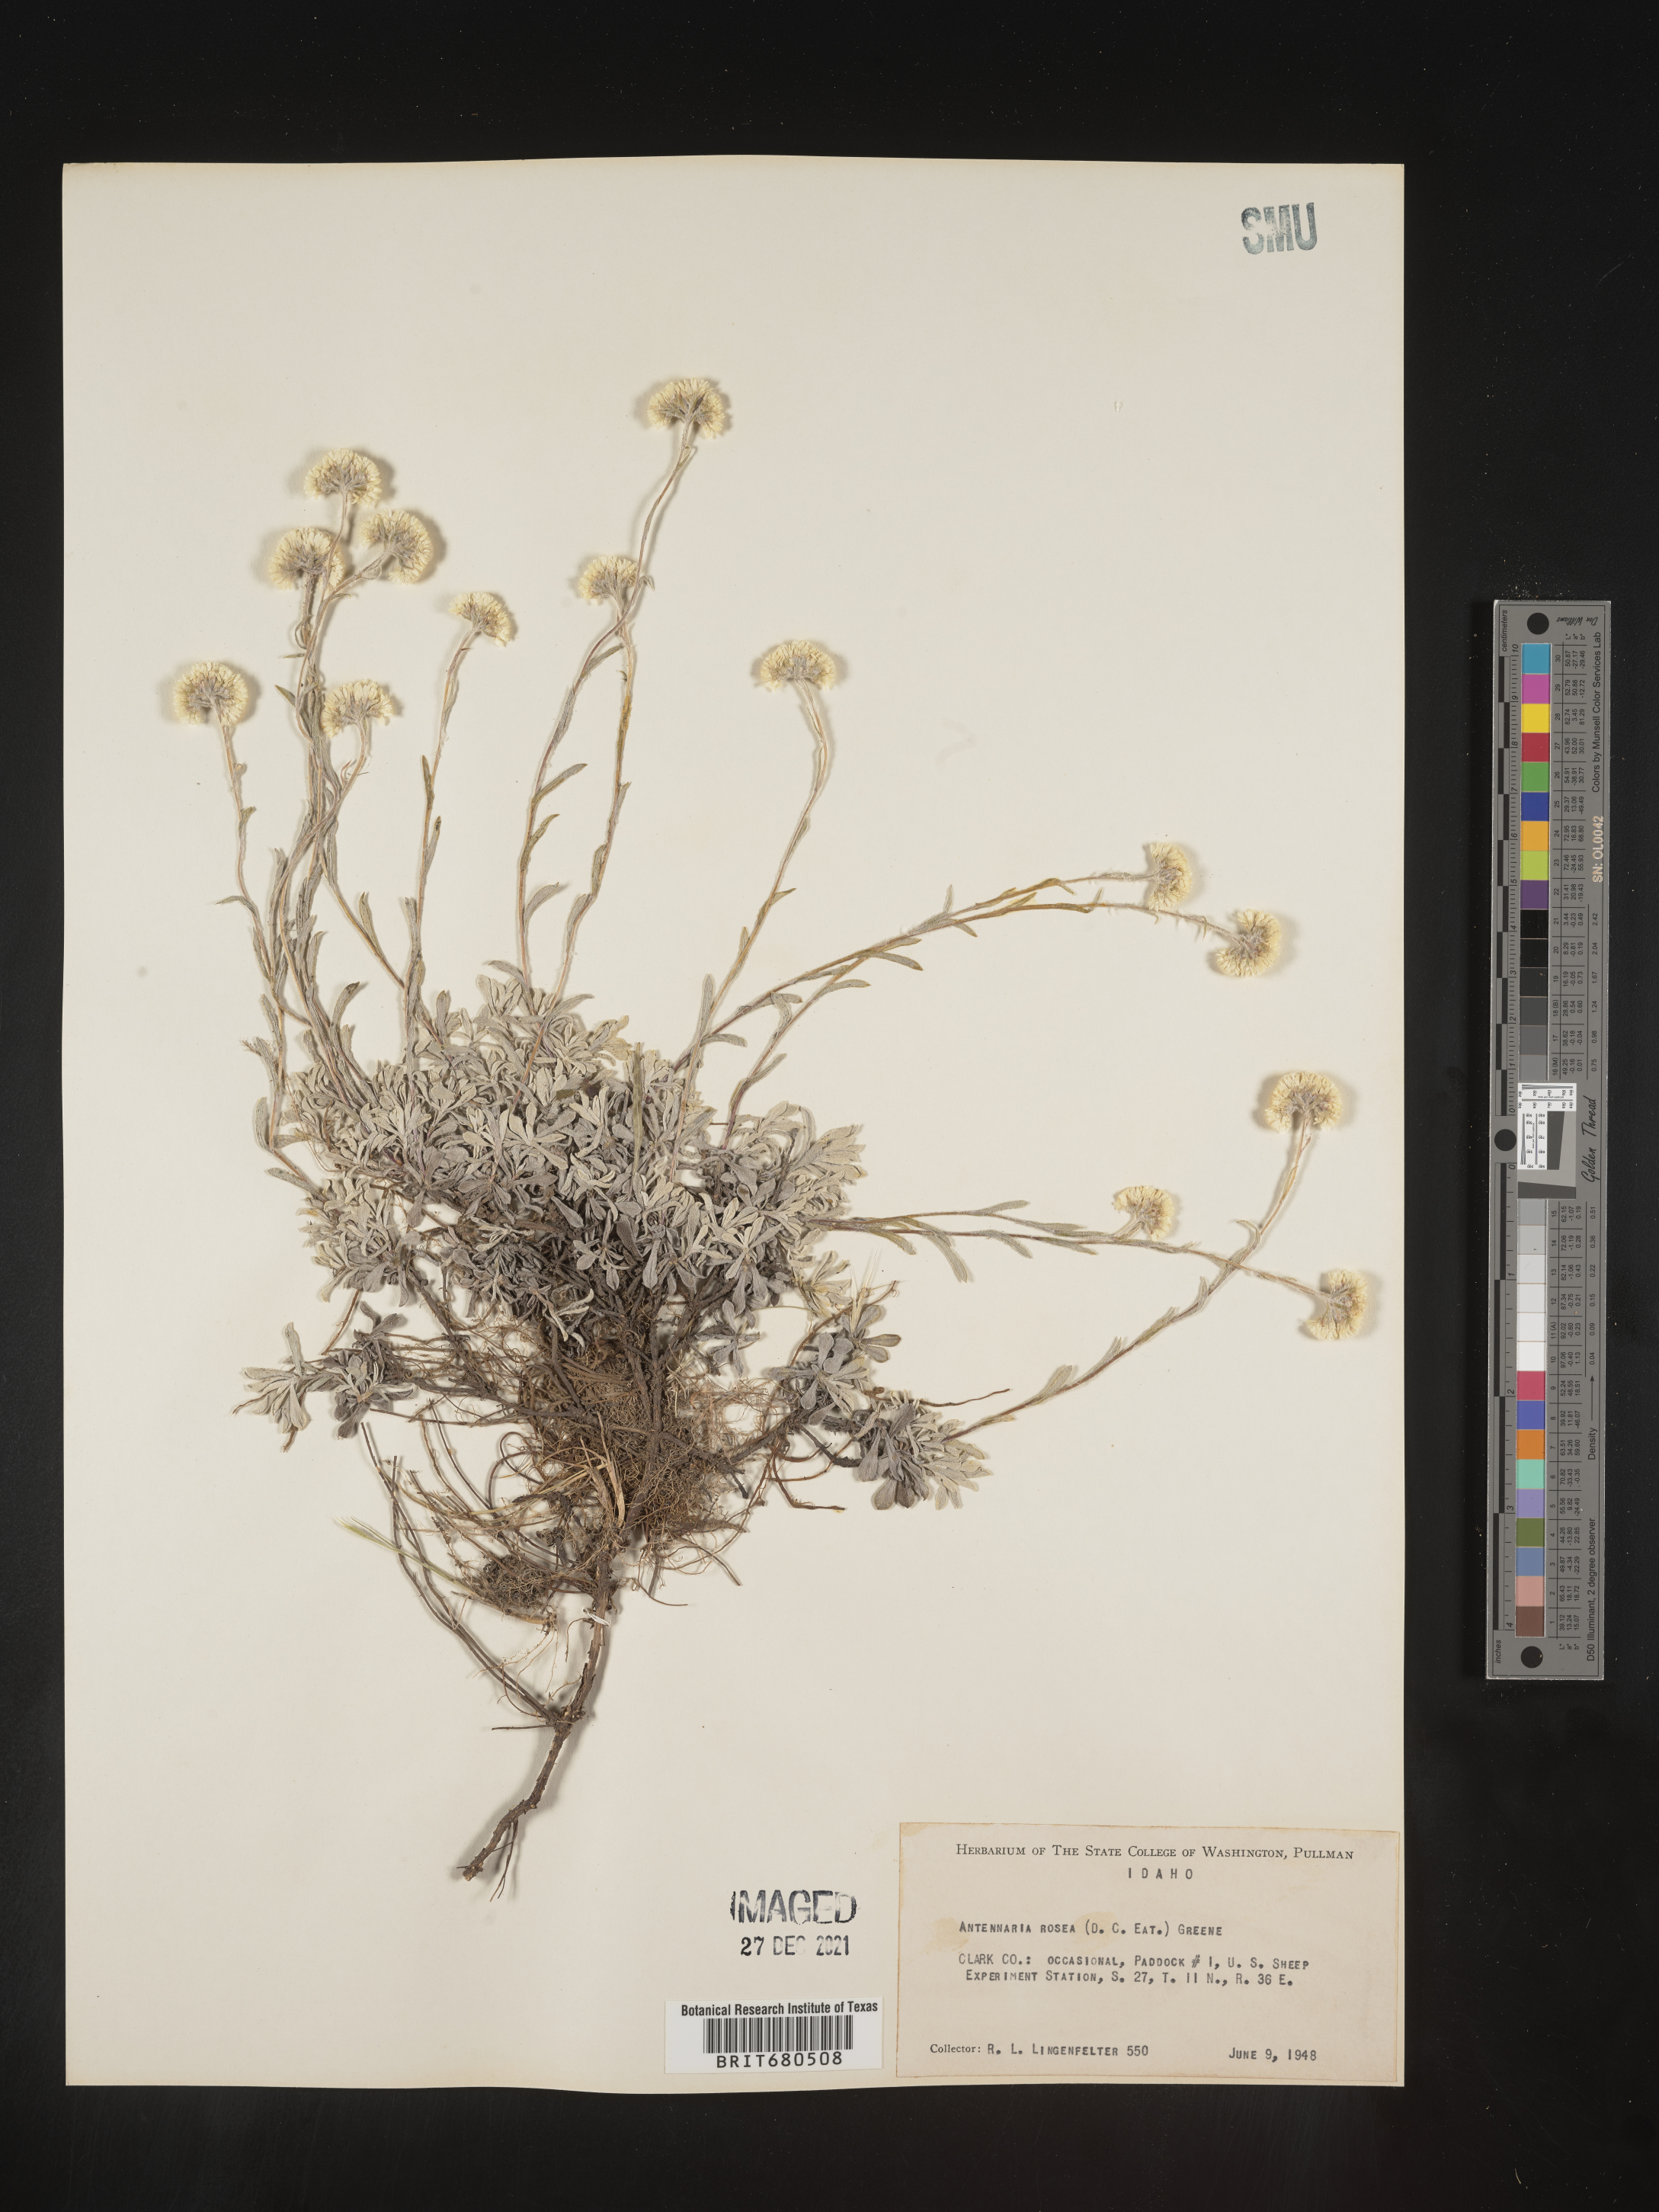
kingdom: Plantae
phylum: Tracheophyta
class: Magnoliopsida
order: Asterales
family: Asteraceae
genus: Antennaria
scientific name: Antennaria rosea
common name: Rosy pussytoes
